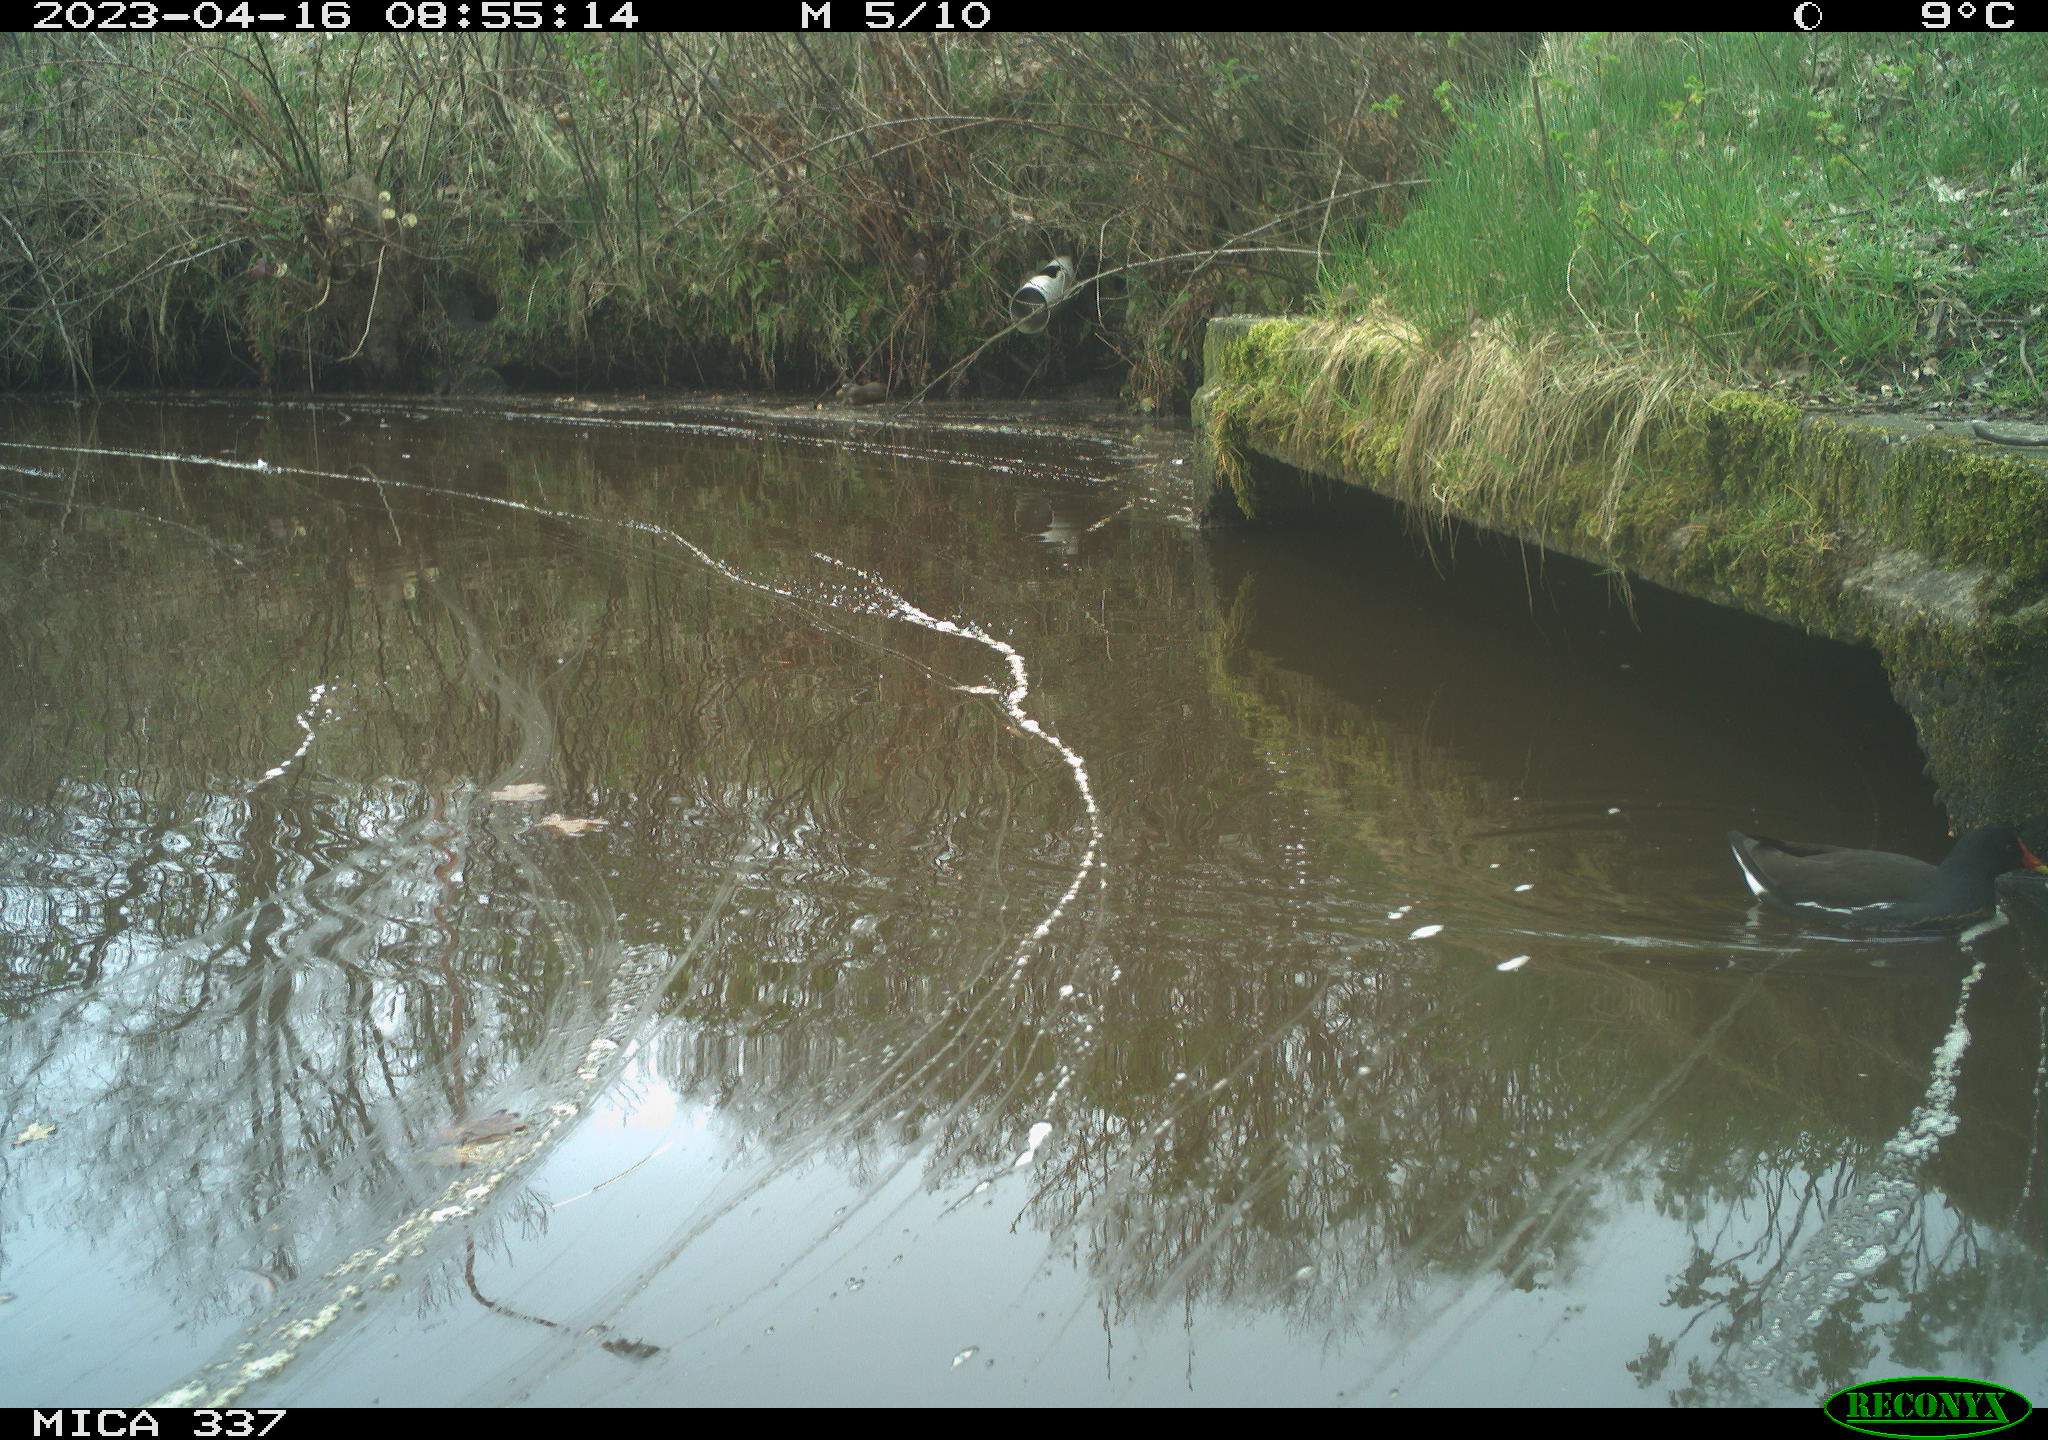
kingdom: Animalia
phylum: Chordata
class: Aves
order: Gruiformes
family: Rallidae
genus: Gallinula
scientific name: Gallinula chloropus
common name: Common moorhen
